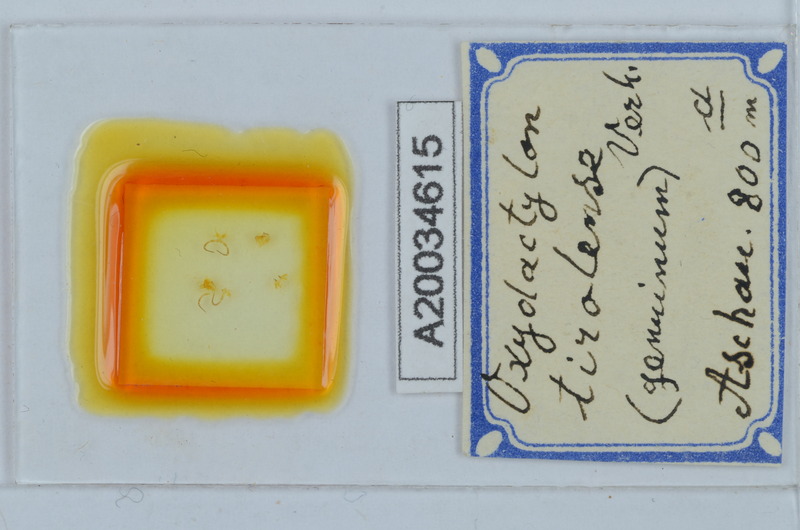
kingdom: Animalia
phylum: Arthropoda
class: Diplopoda
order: Chordeumatida
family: Craspedosomatidae
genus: Iulogona
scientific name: Iulogona tirolensis
